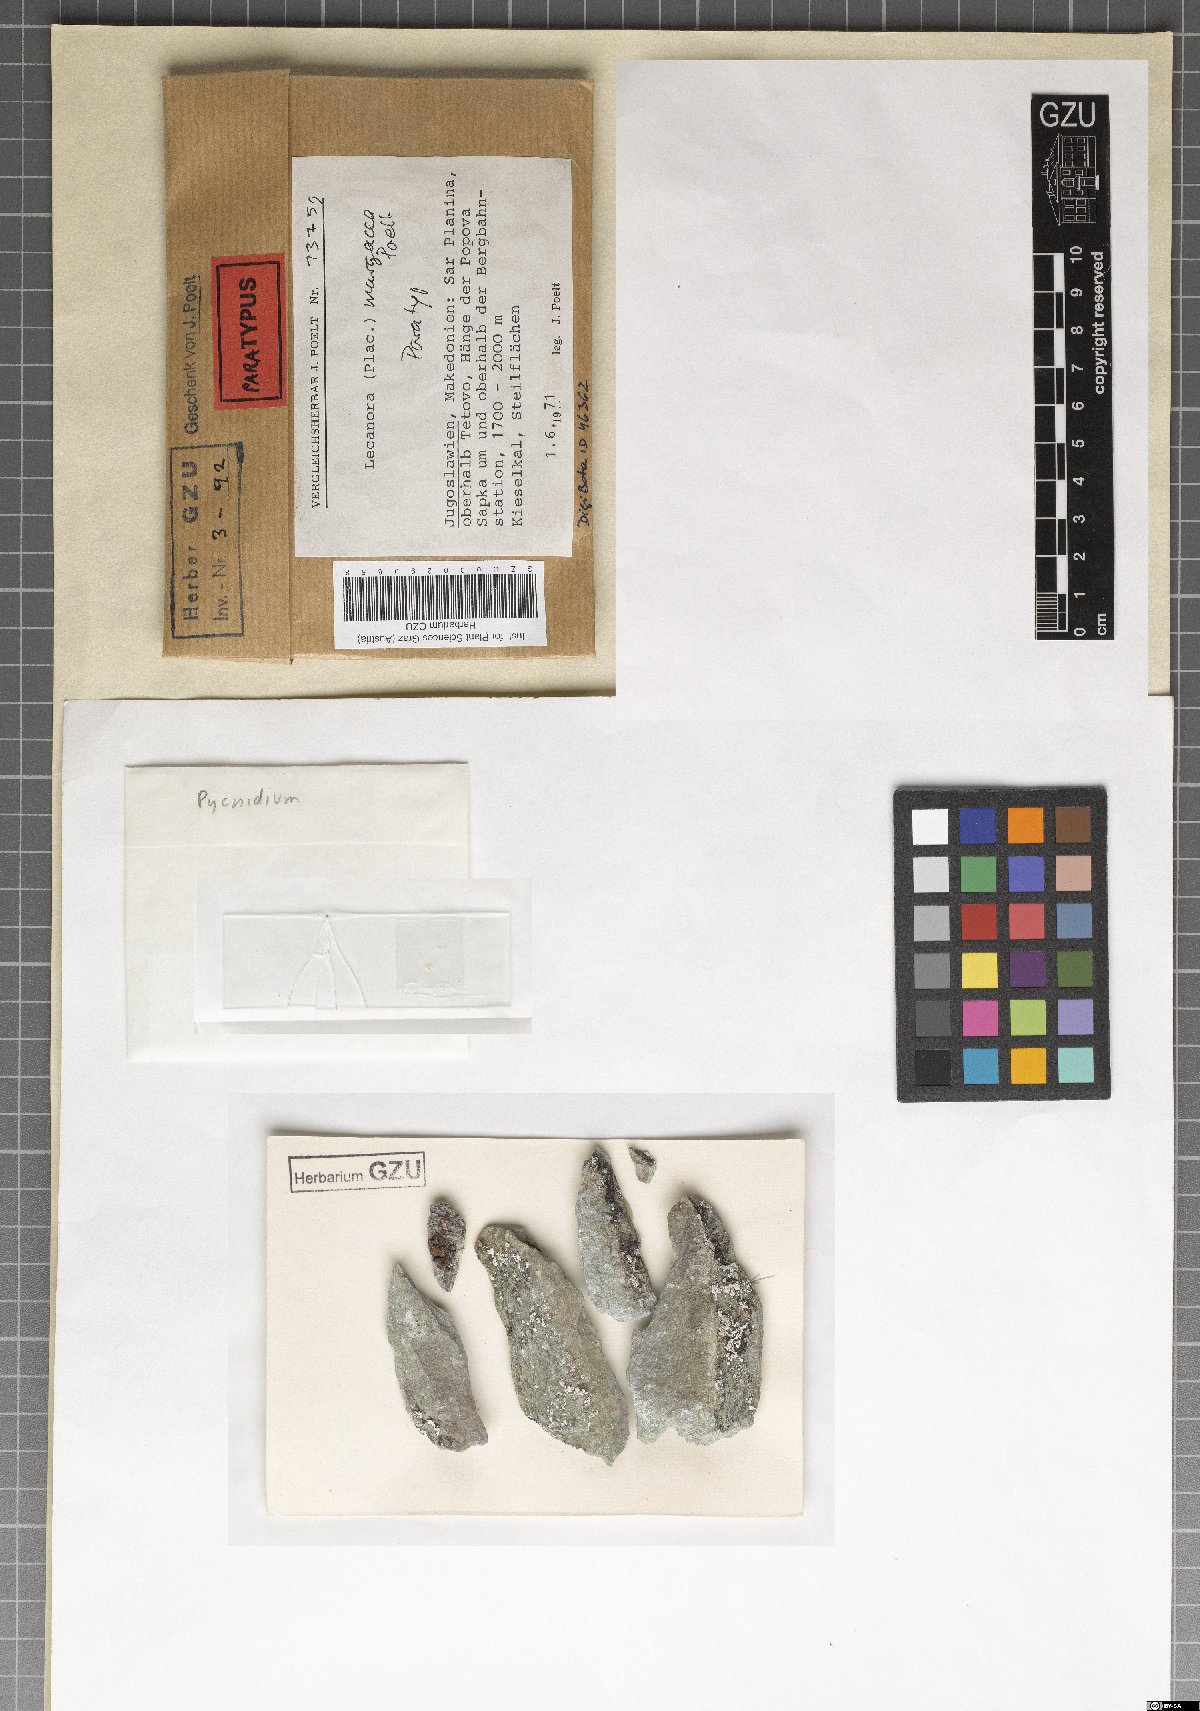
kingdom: Fungi
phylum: Ascomycota
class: Lecanoromycetes
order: Lecanorales
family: Lecanoraceae
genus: Lecanora
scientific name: Lecanora margacea
